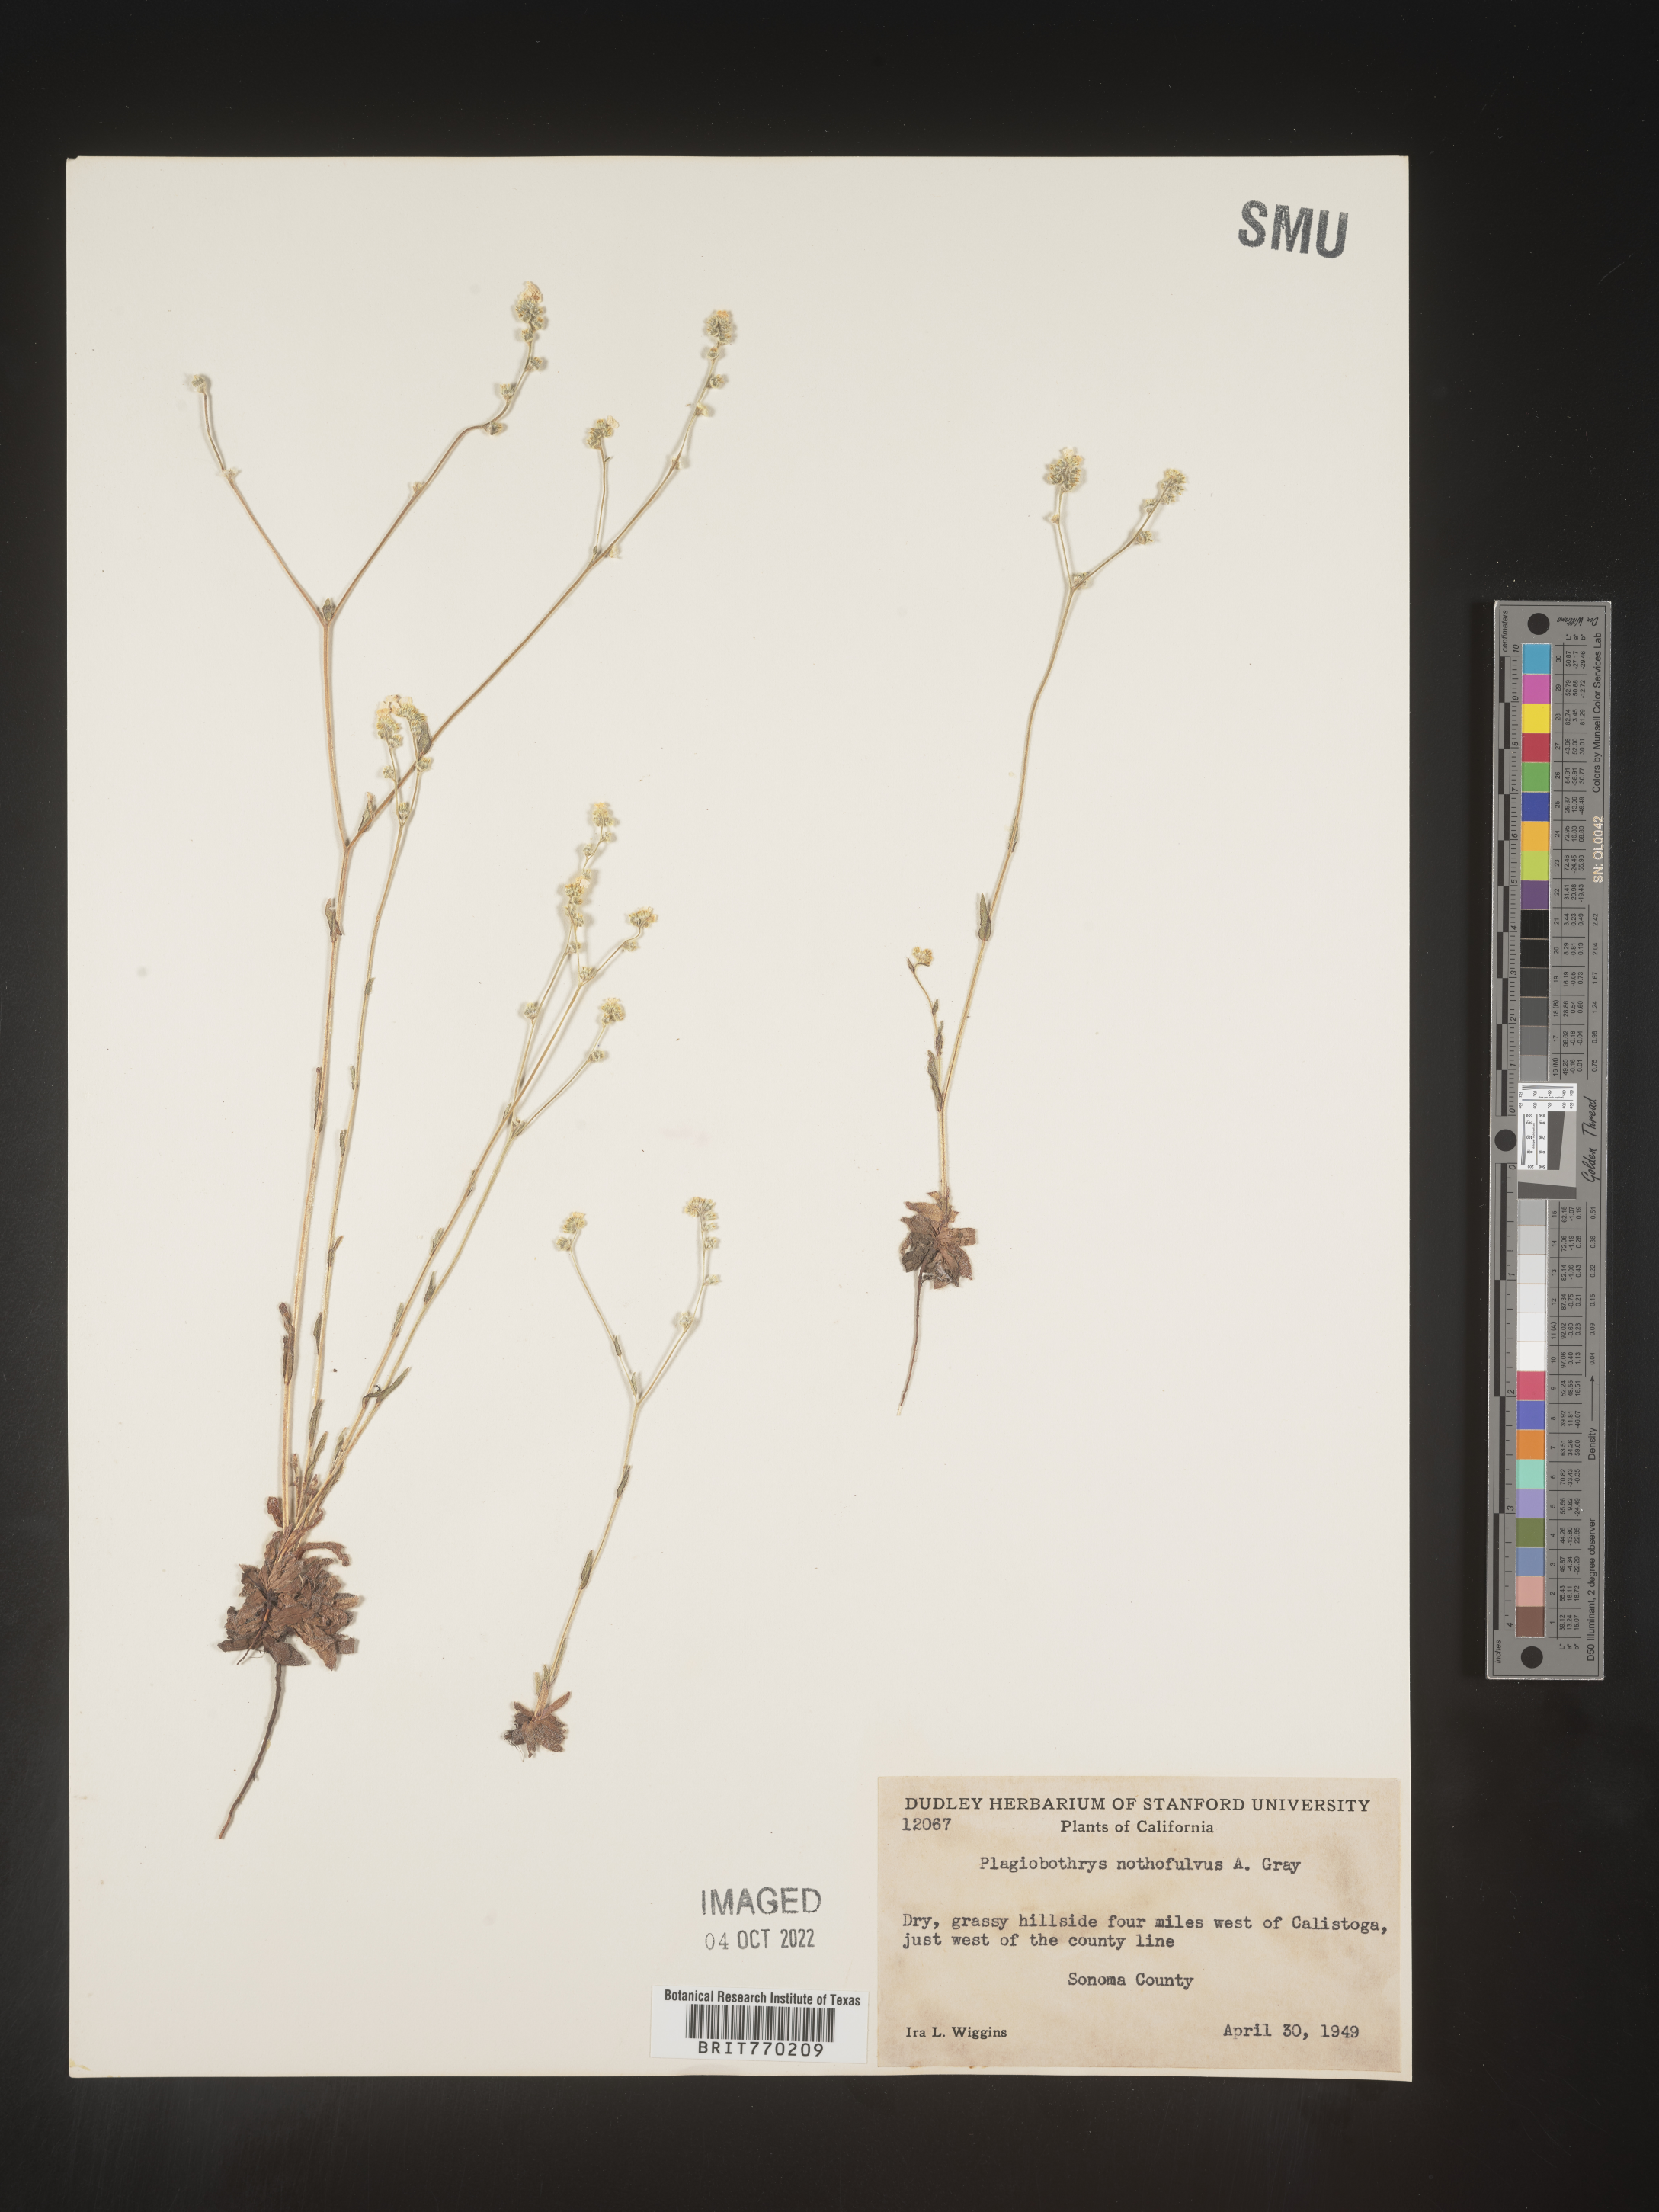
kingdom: Plantae
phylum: Tracheophyta
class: Magnoliopsida
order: Boraginales
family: Boraginaceae
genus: Plagiobothrys
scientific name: Plagiobothrys
